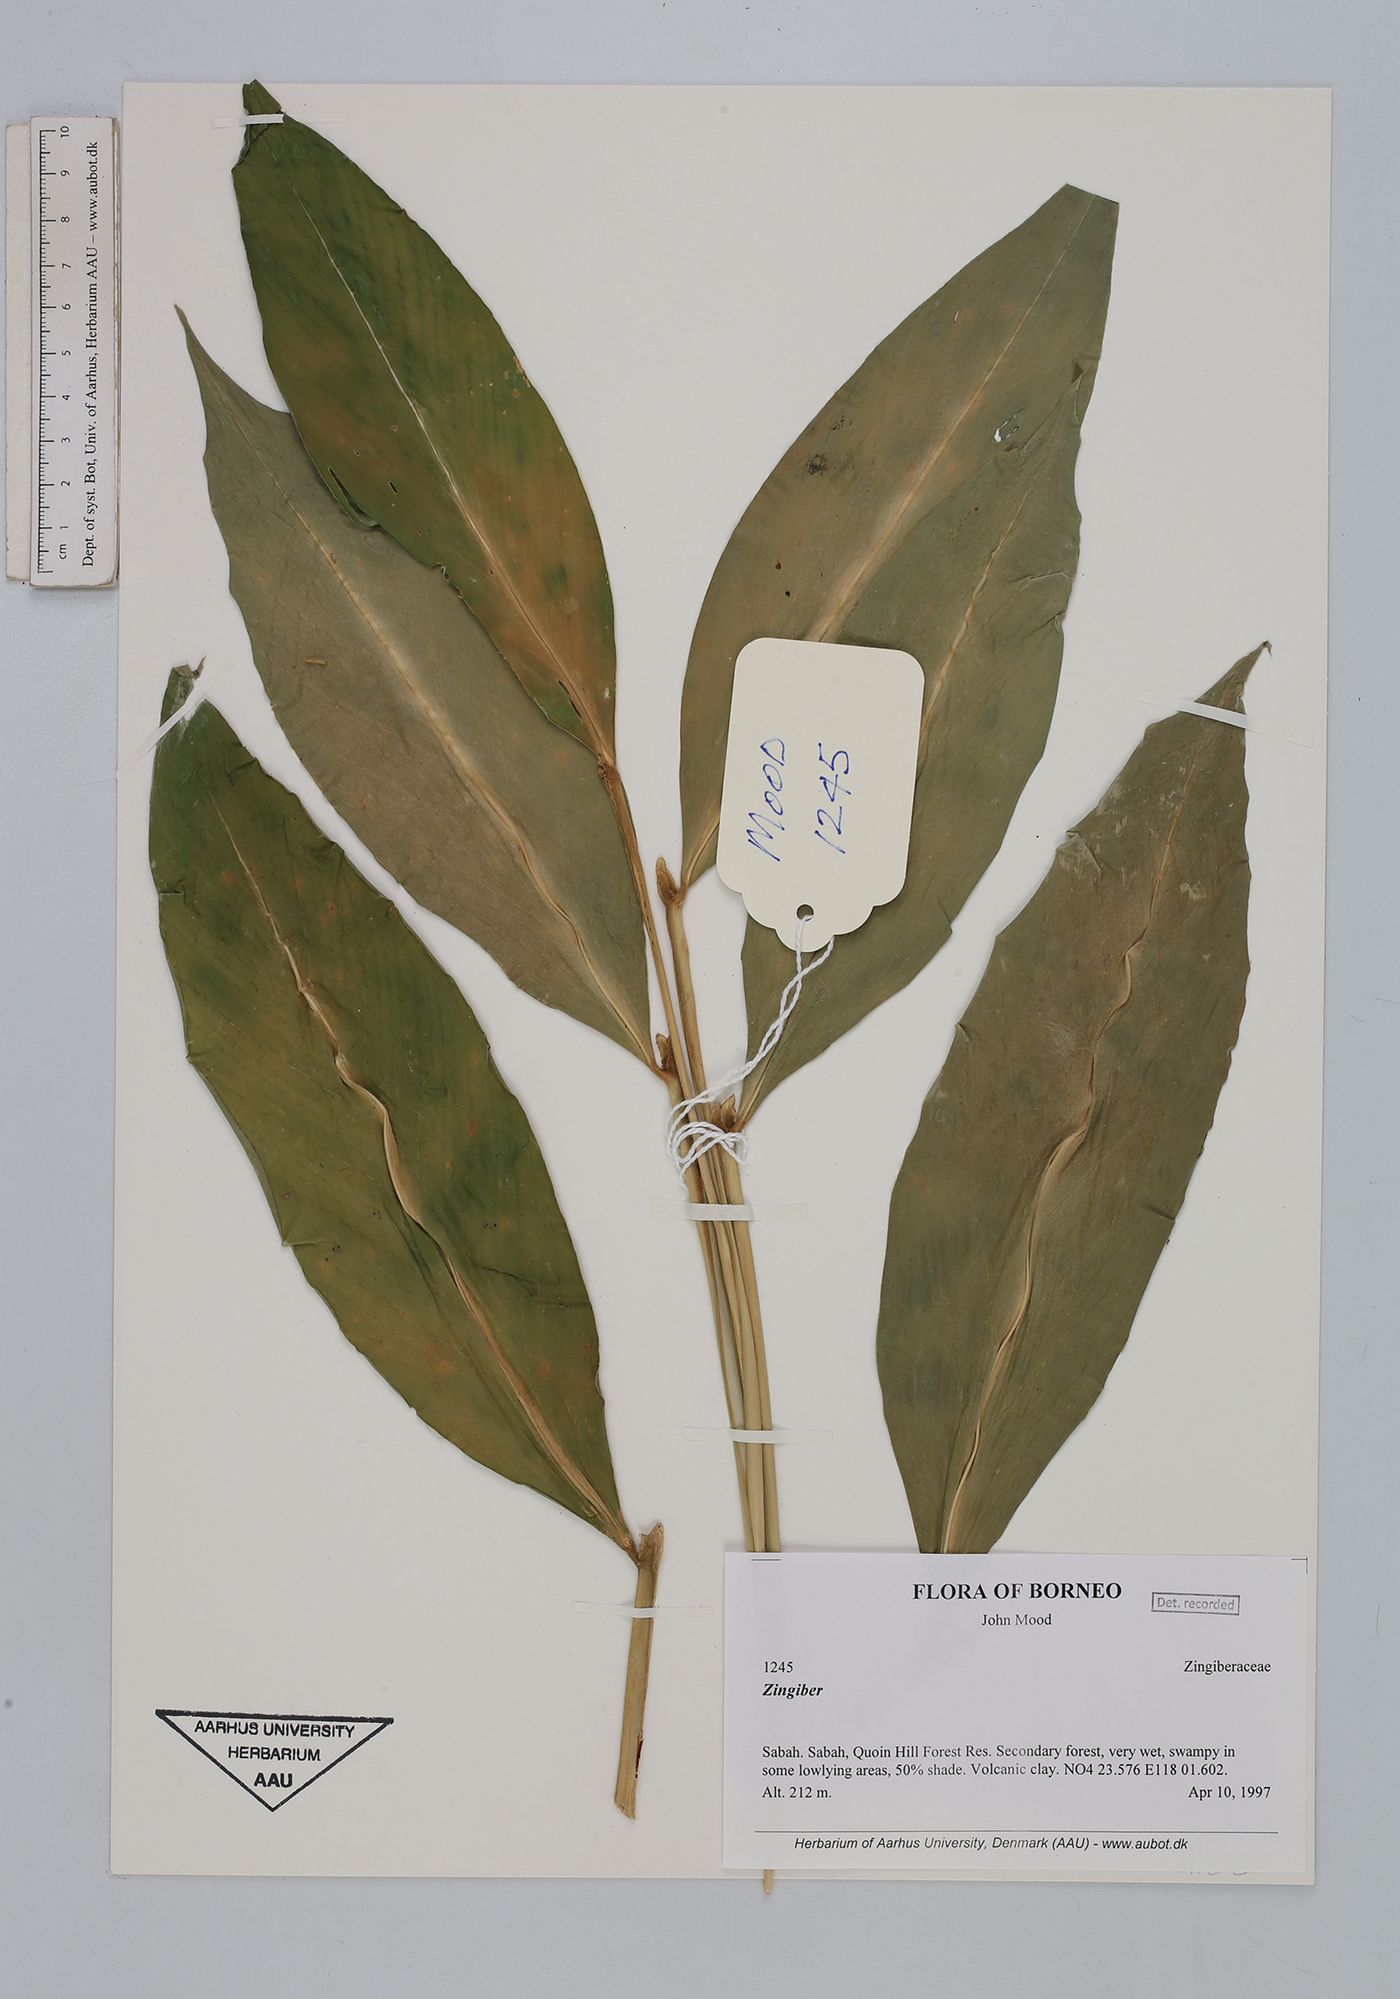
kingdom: Plantae
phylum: Tracheophyta
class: Liliopsida
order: Zingiberales
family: Zingiberaceae
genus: Zingiber
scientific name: Zingiber
